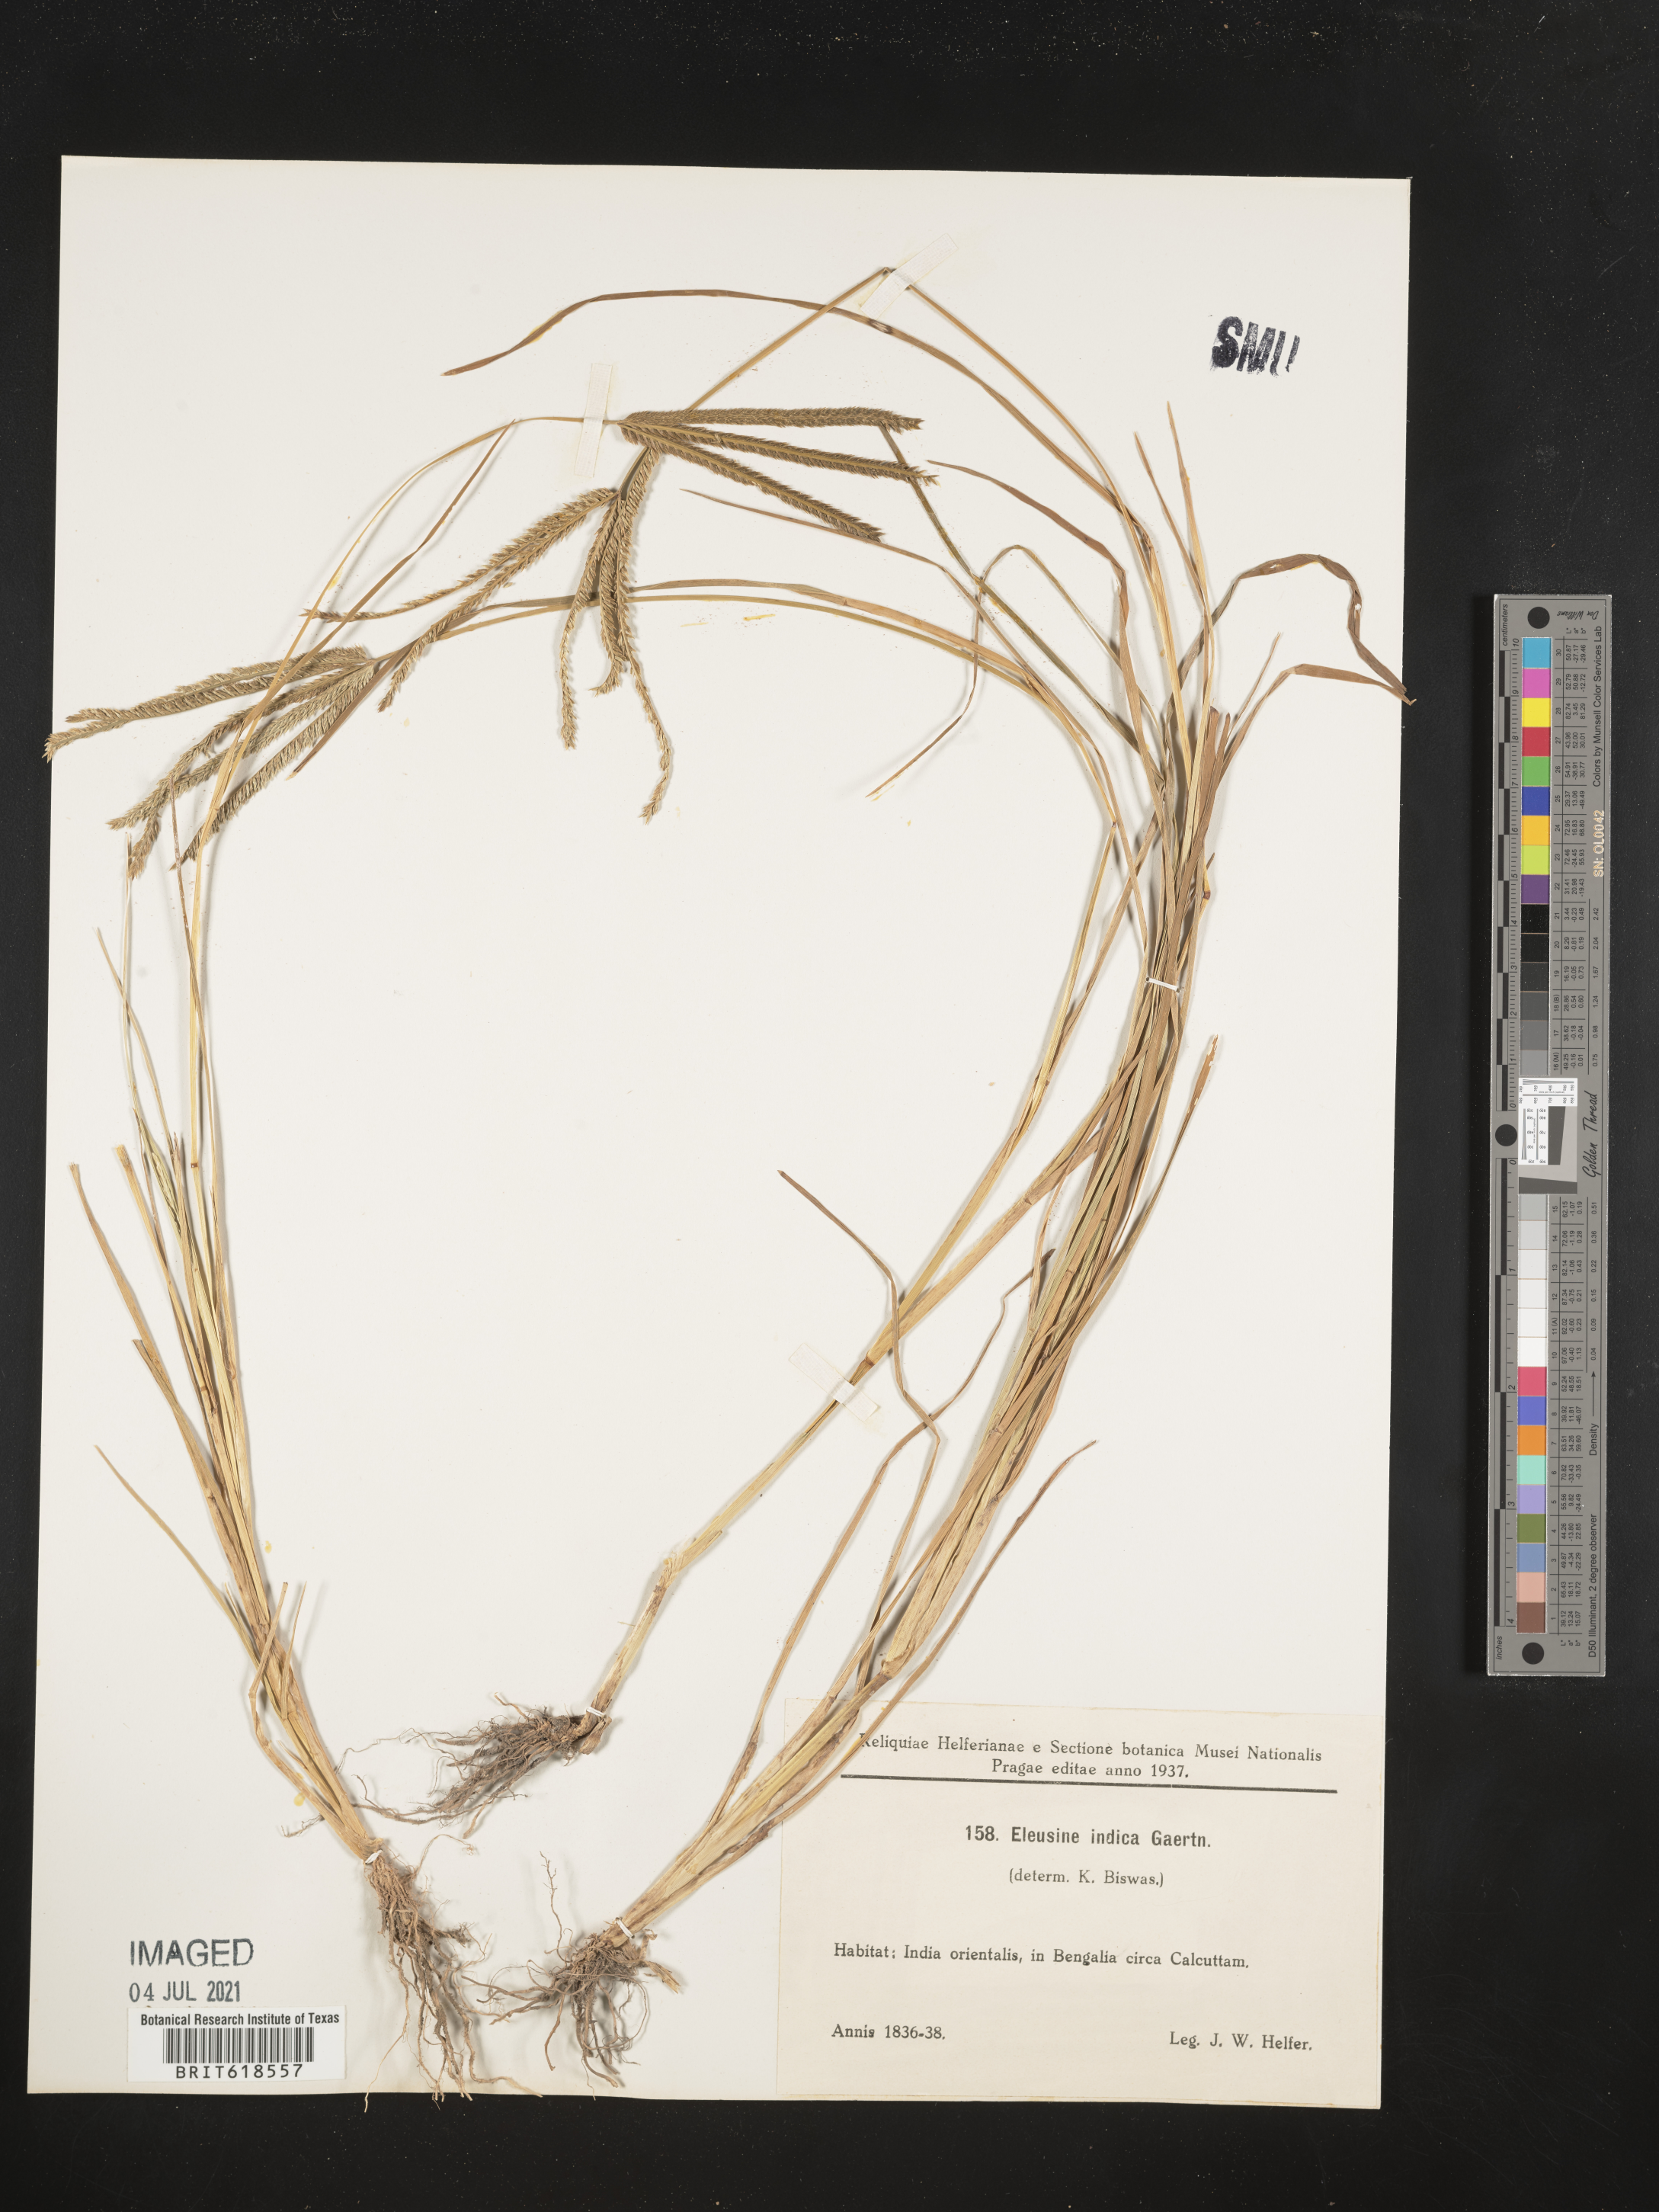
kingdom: Plantae
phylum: Tracheophyta
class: Liliopsida
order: Poales
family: Poaceae
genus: Eleusine
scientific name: Eleusine indica
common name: Yard-grass
